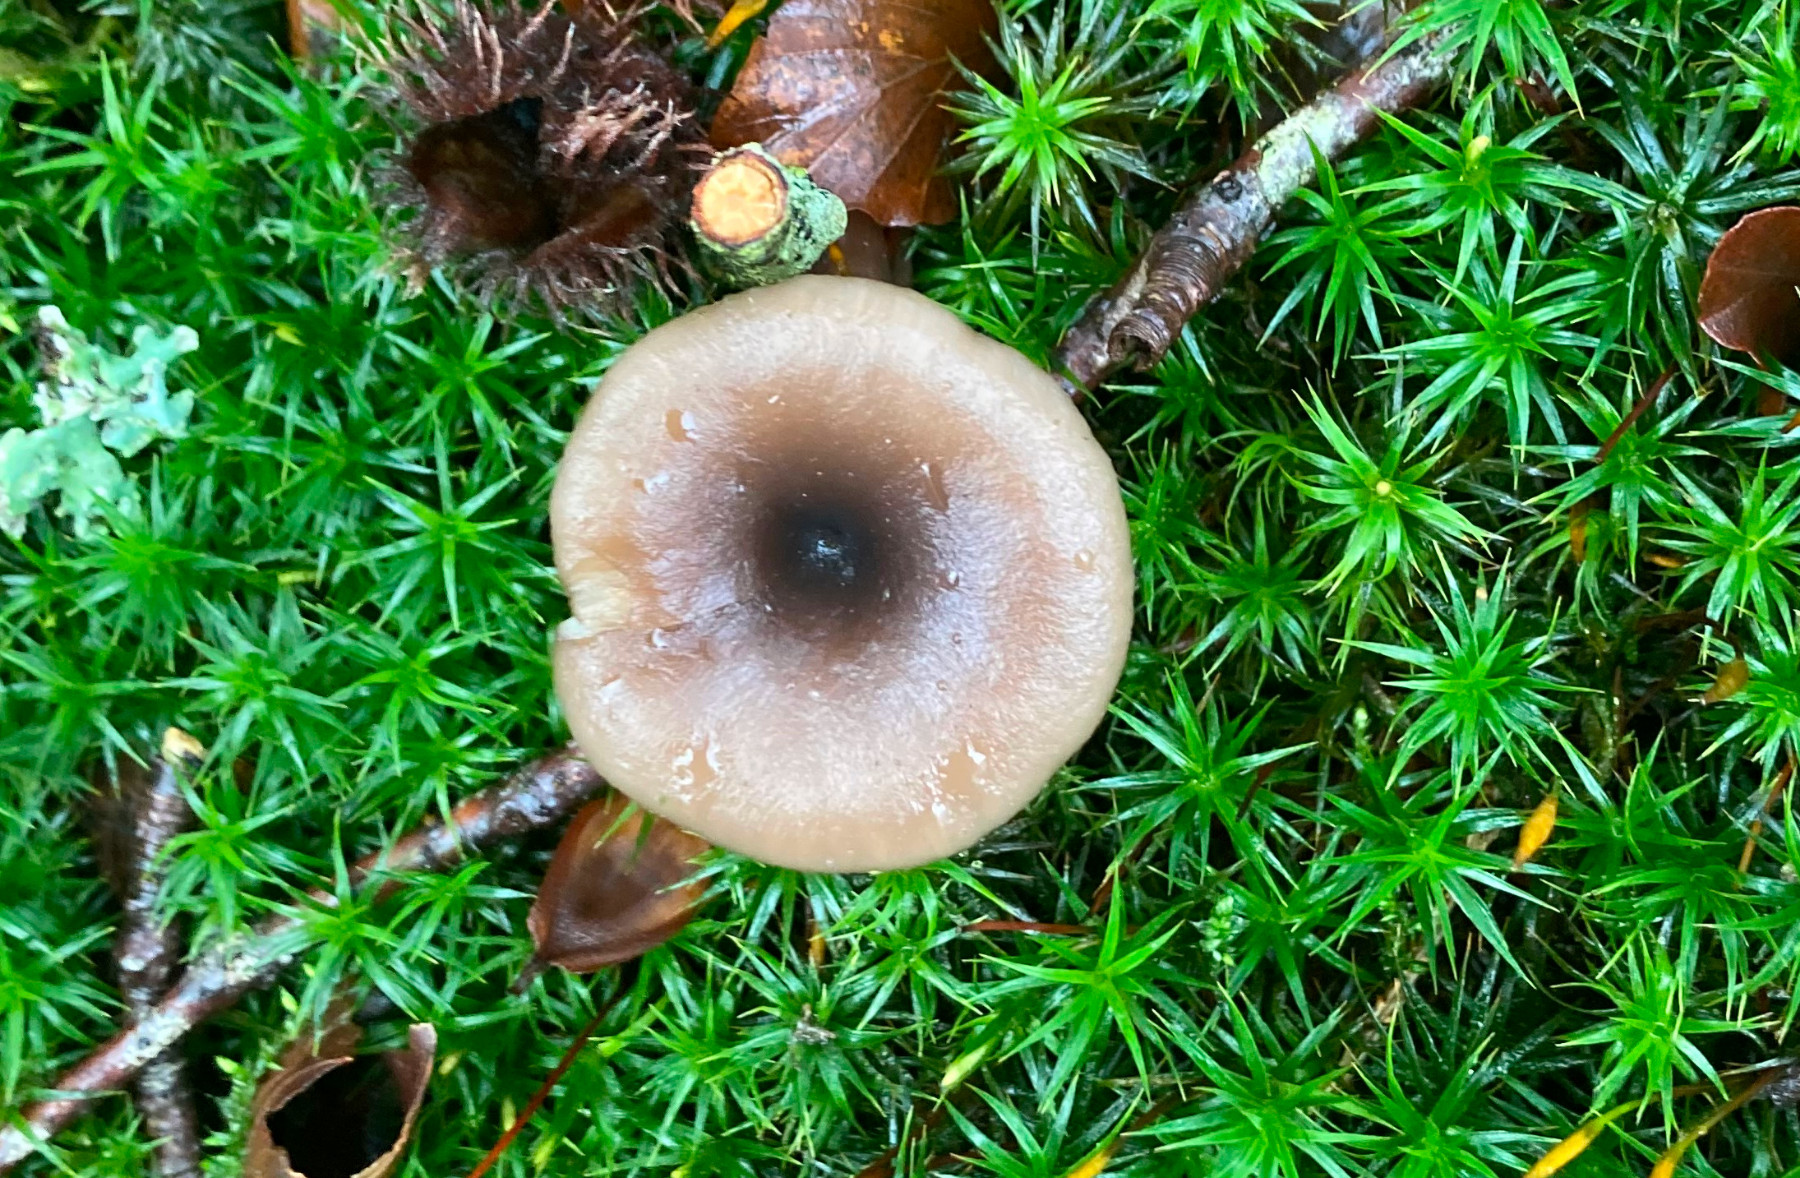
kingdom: Fungi
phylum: Basidiomycota
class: Agaricomycetes
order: Agaricales
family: Pseudoclitocybaceae
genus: Pseudoclitocybe
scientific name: Pseudoclitocybe cyathiformis
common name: almindelig bægertragthat
